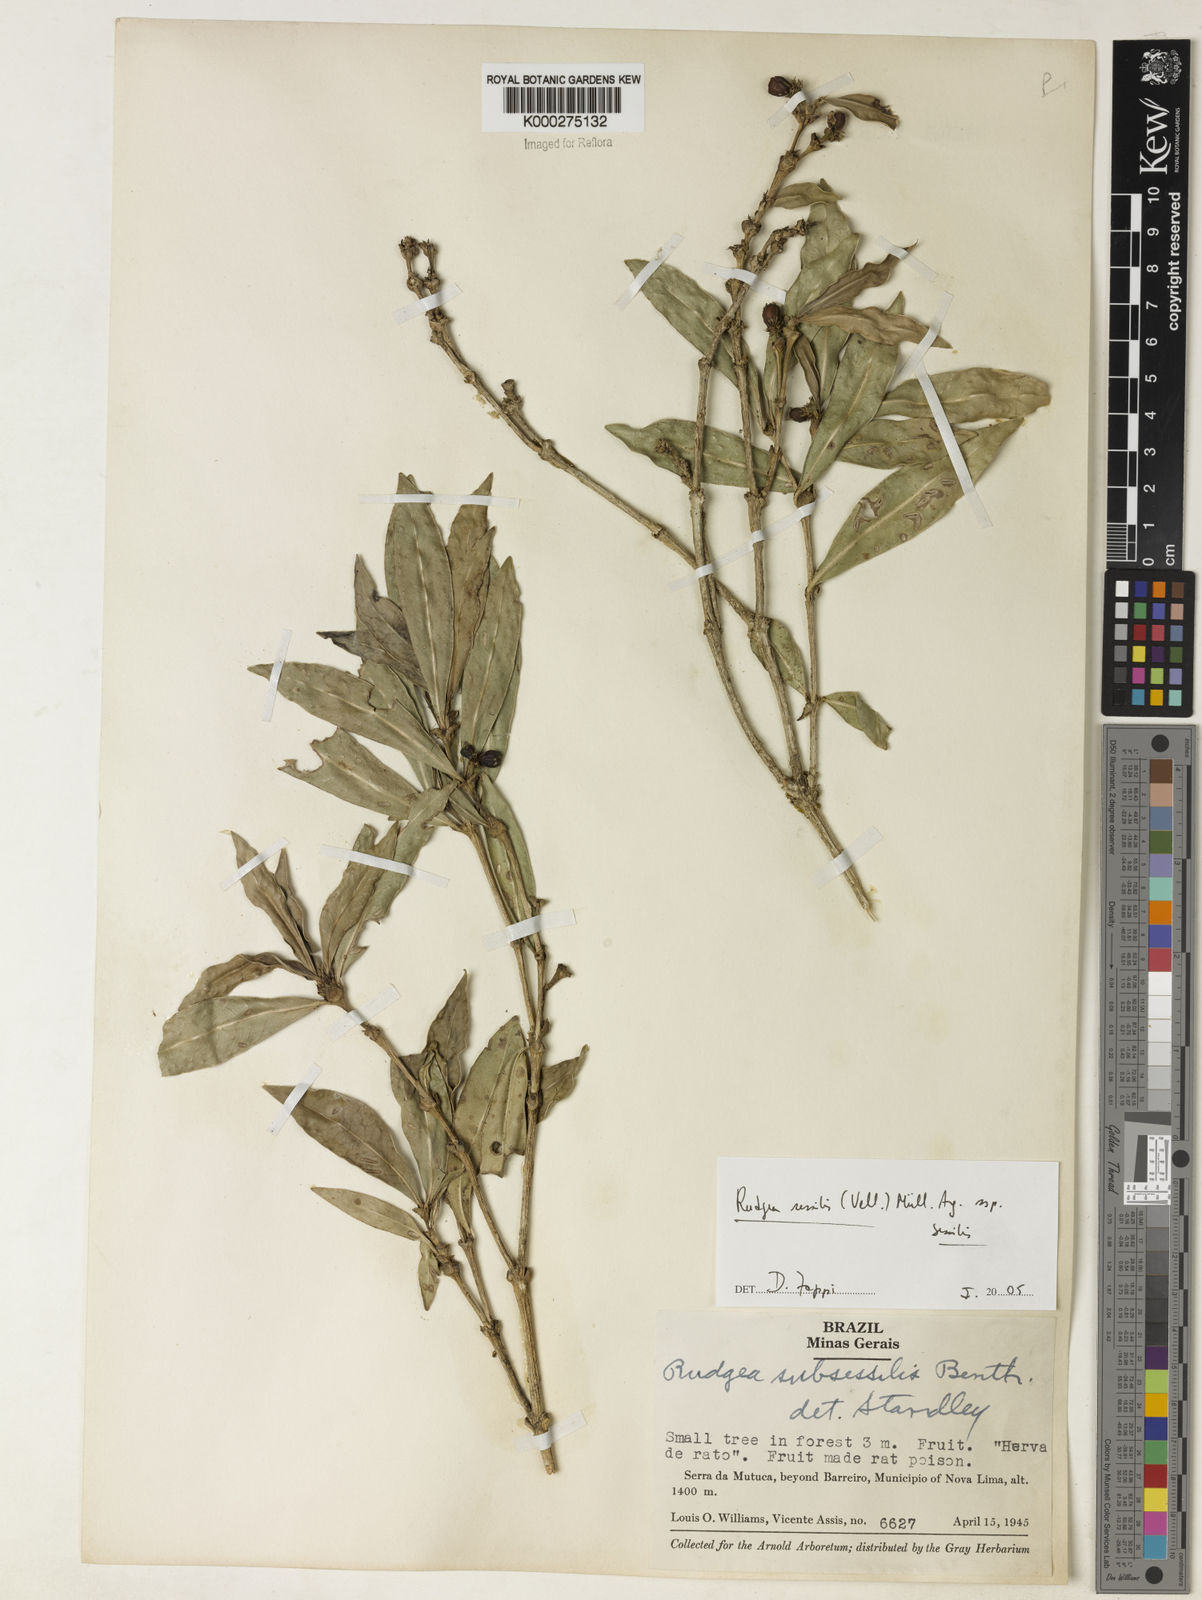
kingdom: Plantae
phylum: Tracheophyta
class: Magnoliopsida
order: Gentianales
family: Rubiaceae
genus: Rudgea
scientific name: Rudgea sessilis
